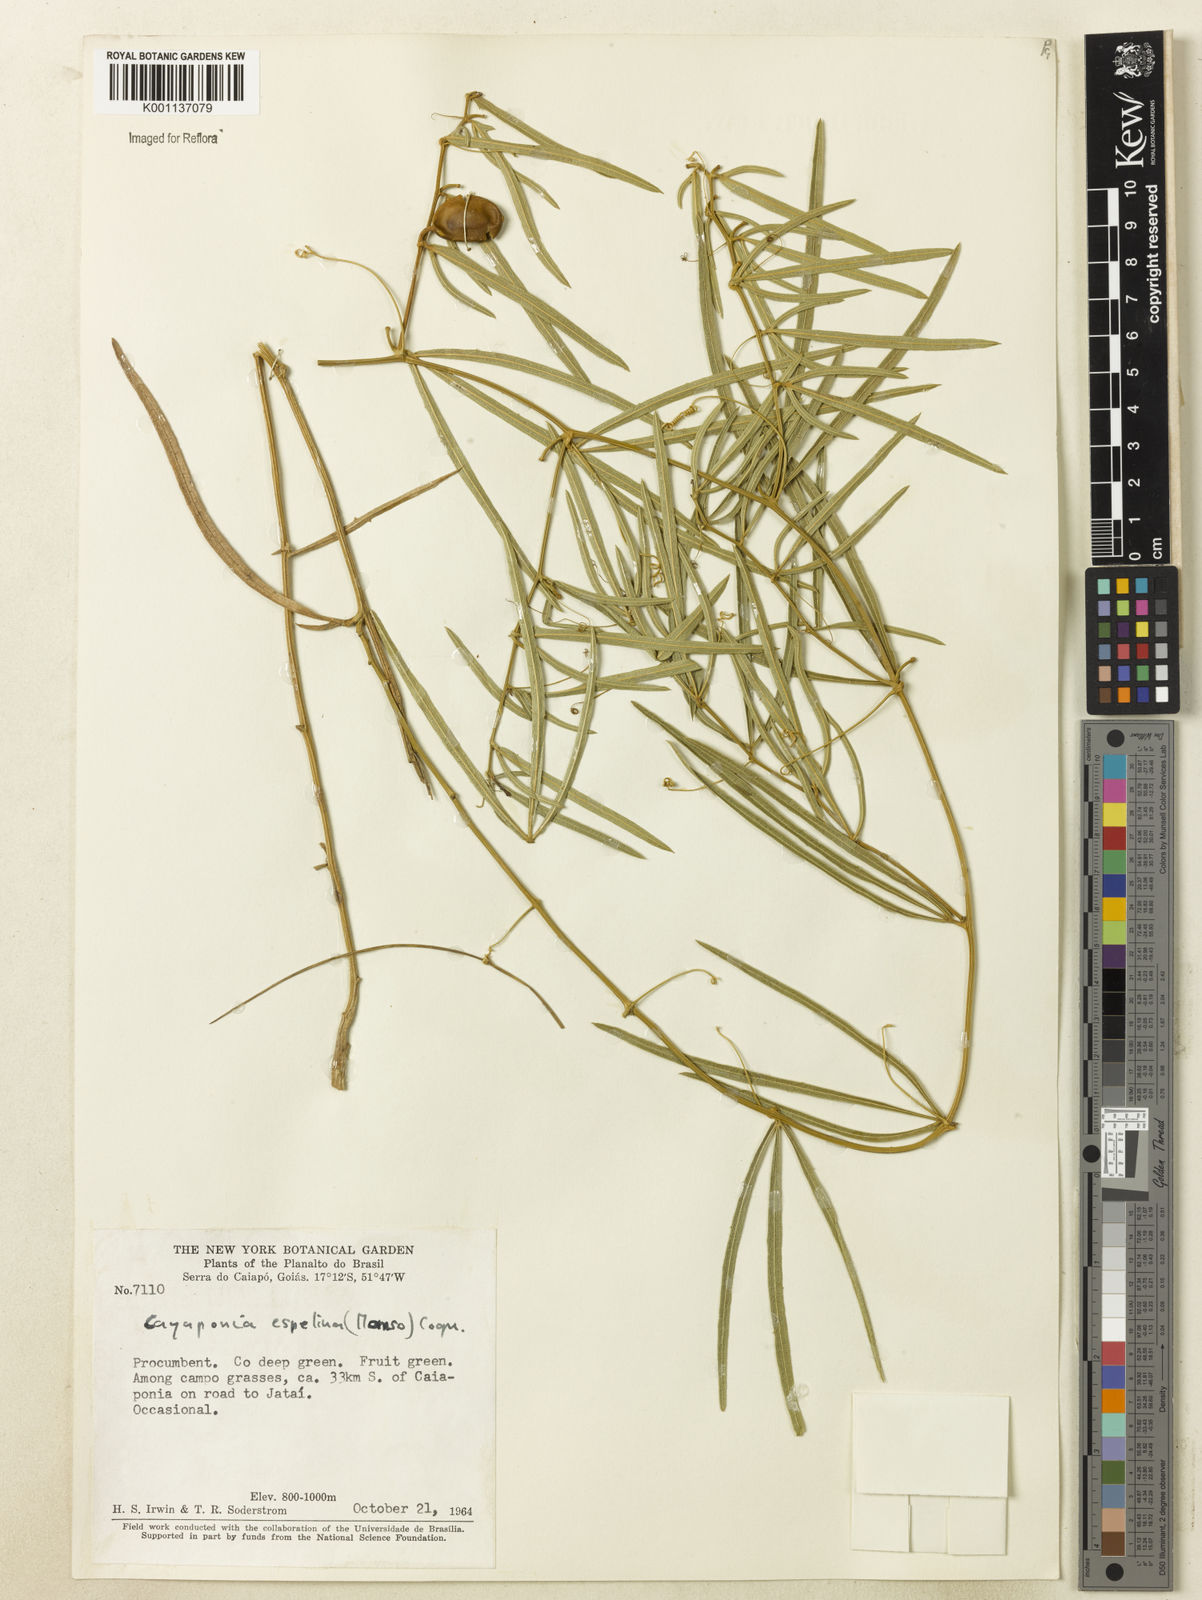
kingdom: Plantae
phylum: Tracheophyta
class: Magnoliopsida
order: Cucurbitales
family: Cucurbitaceae
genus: Cayaponia
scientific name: Cayaponia espelina
